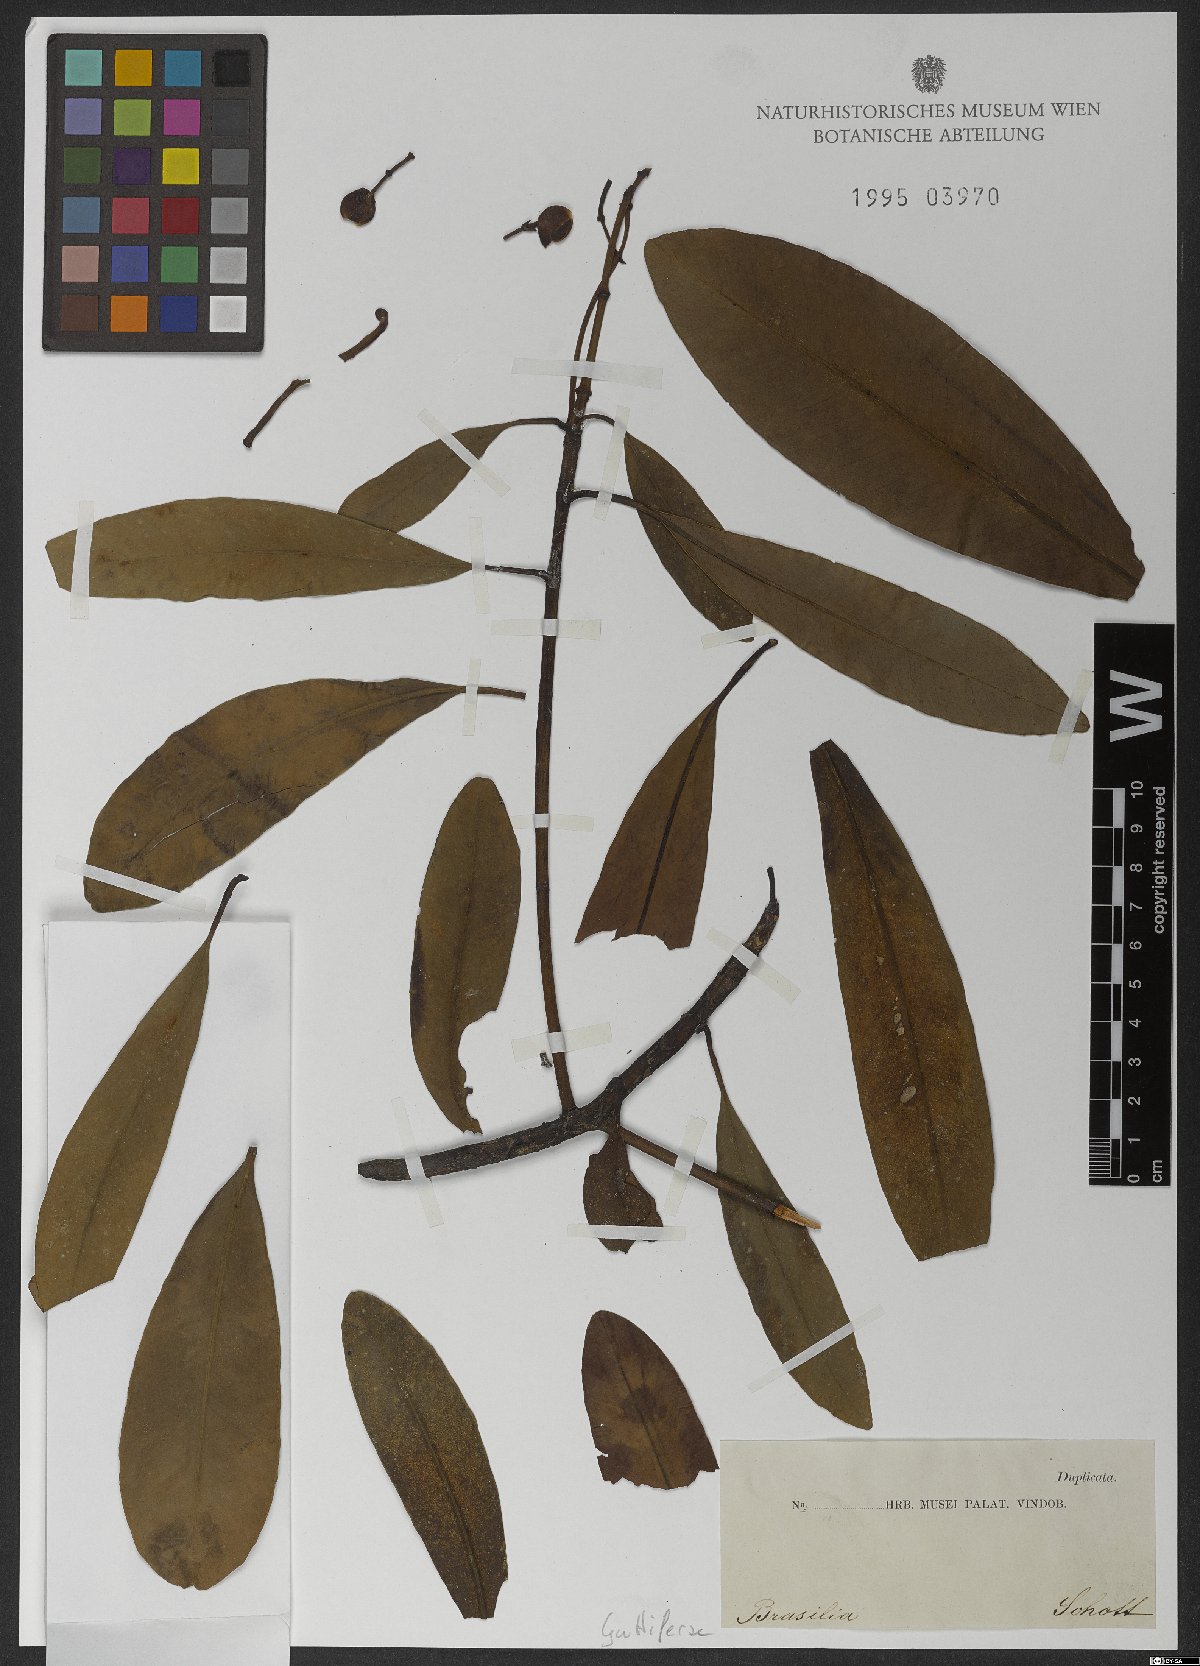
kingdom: Plantae
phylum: Tracheophyta
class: Magnoliopsida
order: Malpighiales
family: Clusiaceae
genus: Chrysochlamys
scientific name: Chrysochlamys paniculata
